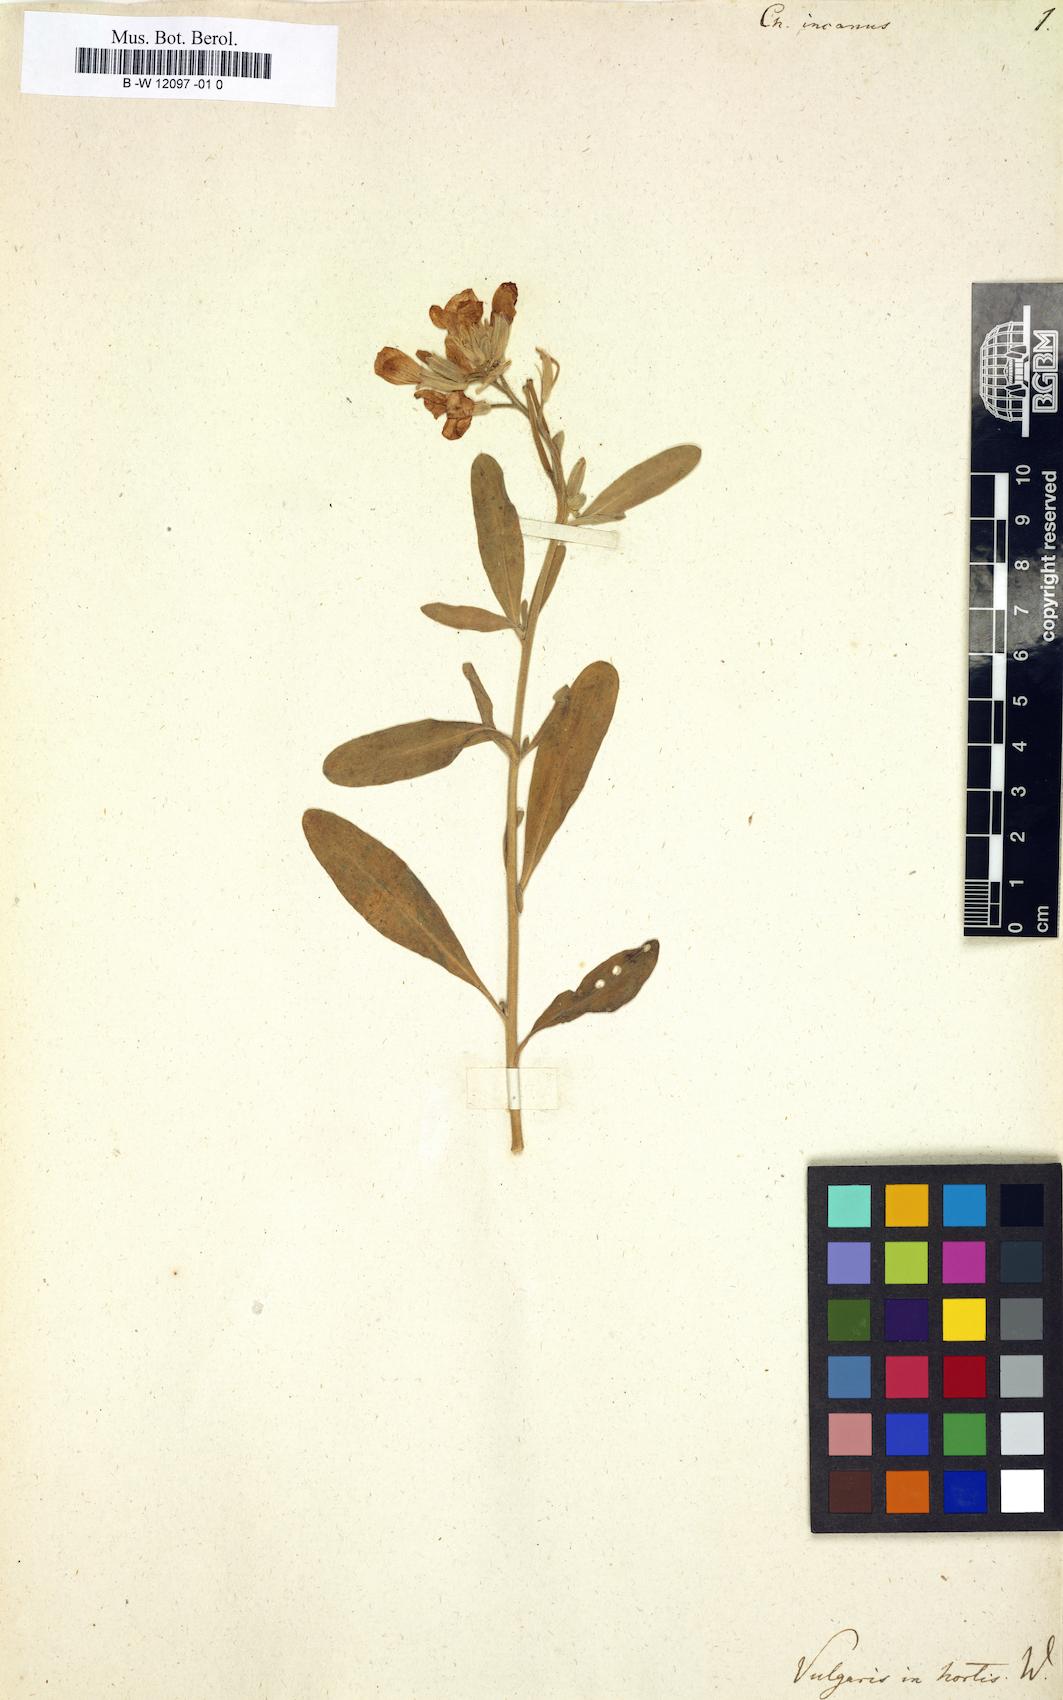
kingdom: Plantae
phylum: Tracheophyta
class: Magnoliopsida
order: Brassicales
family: Brassicaceae
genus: Matthiola
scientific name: Matthiola incana
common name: Hoary stock
